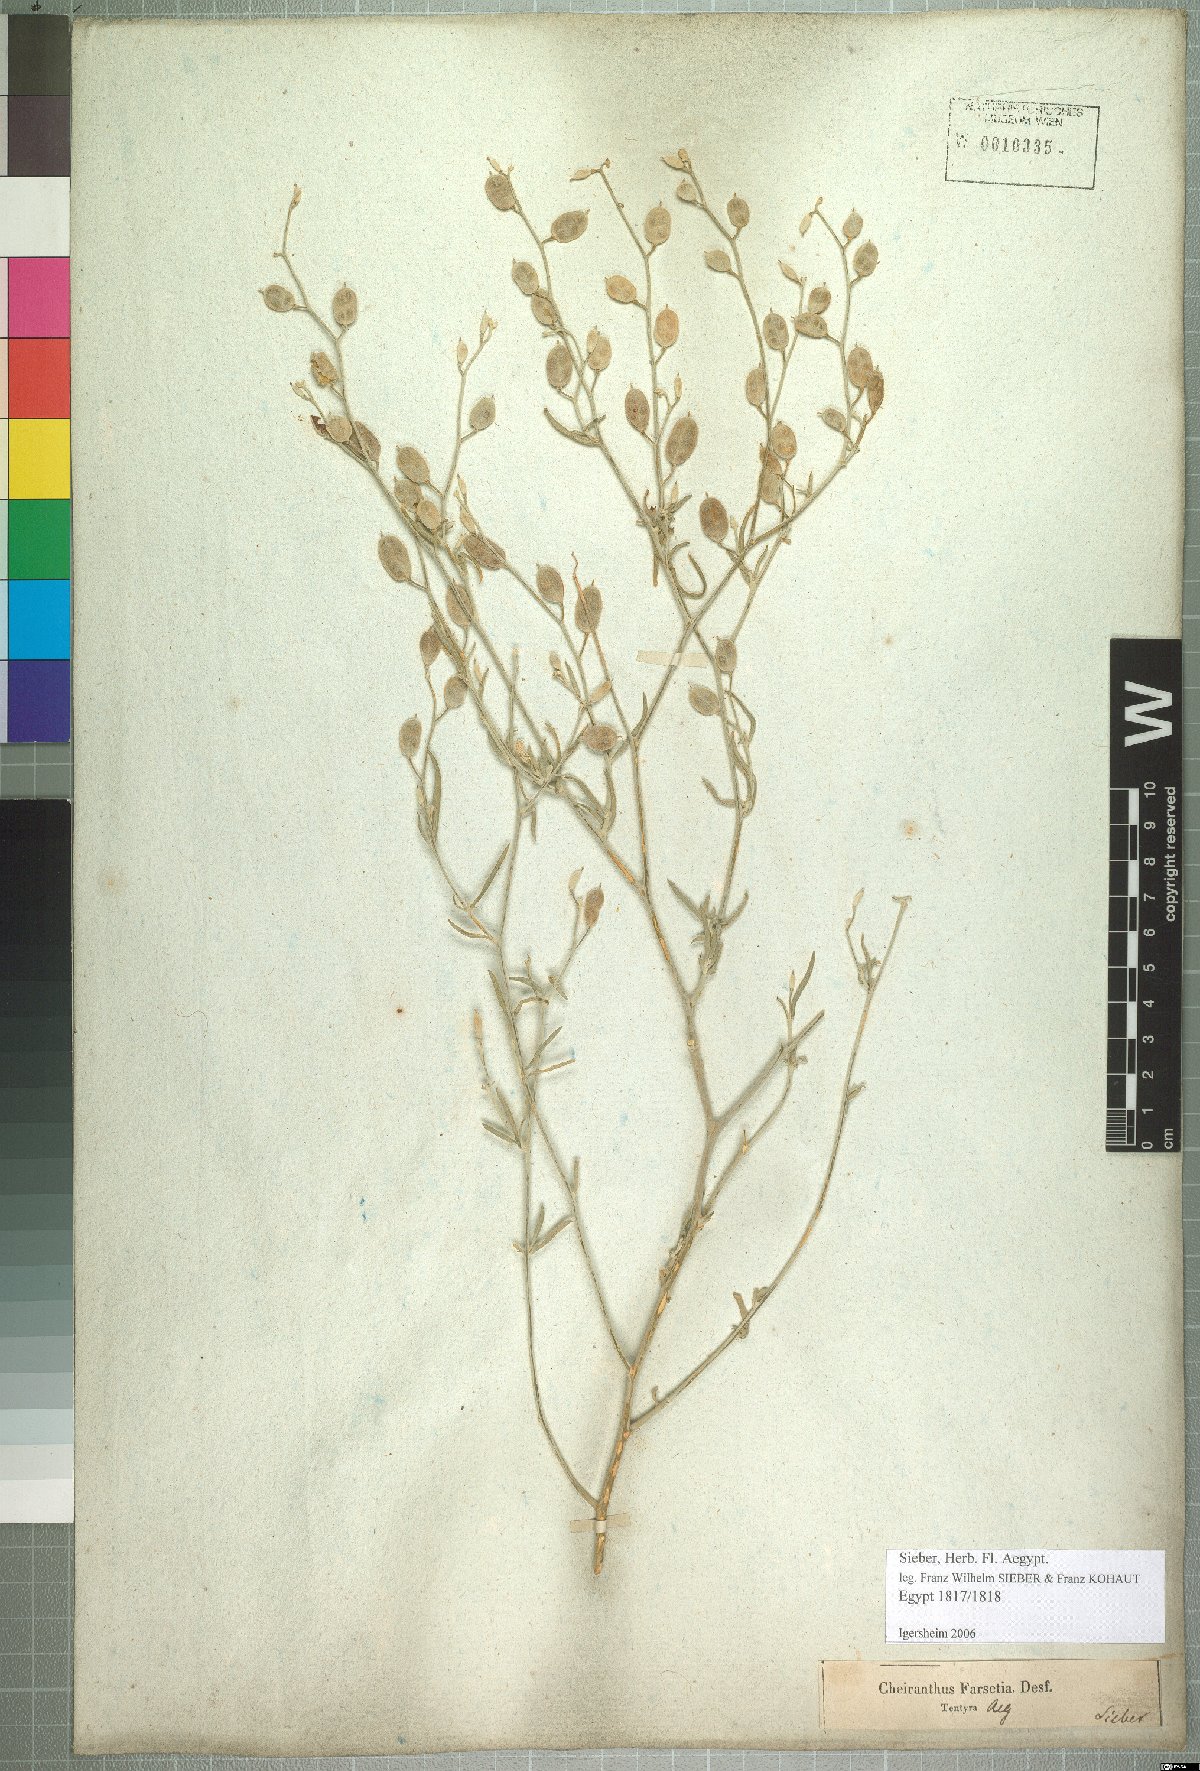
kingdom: Plantae
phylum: Tracheophyta
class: Magnoliopsida
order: Brassicales
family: Brassicaceae
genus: Farsetia
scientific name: Farsetia aegyptia
